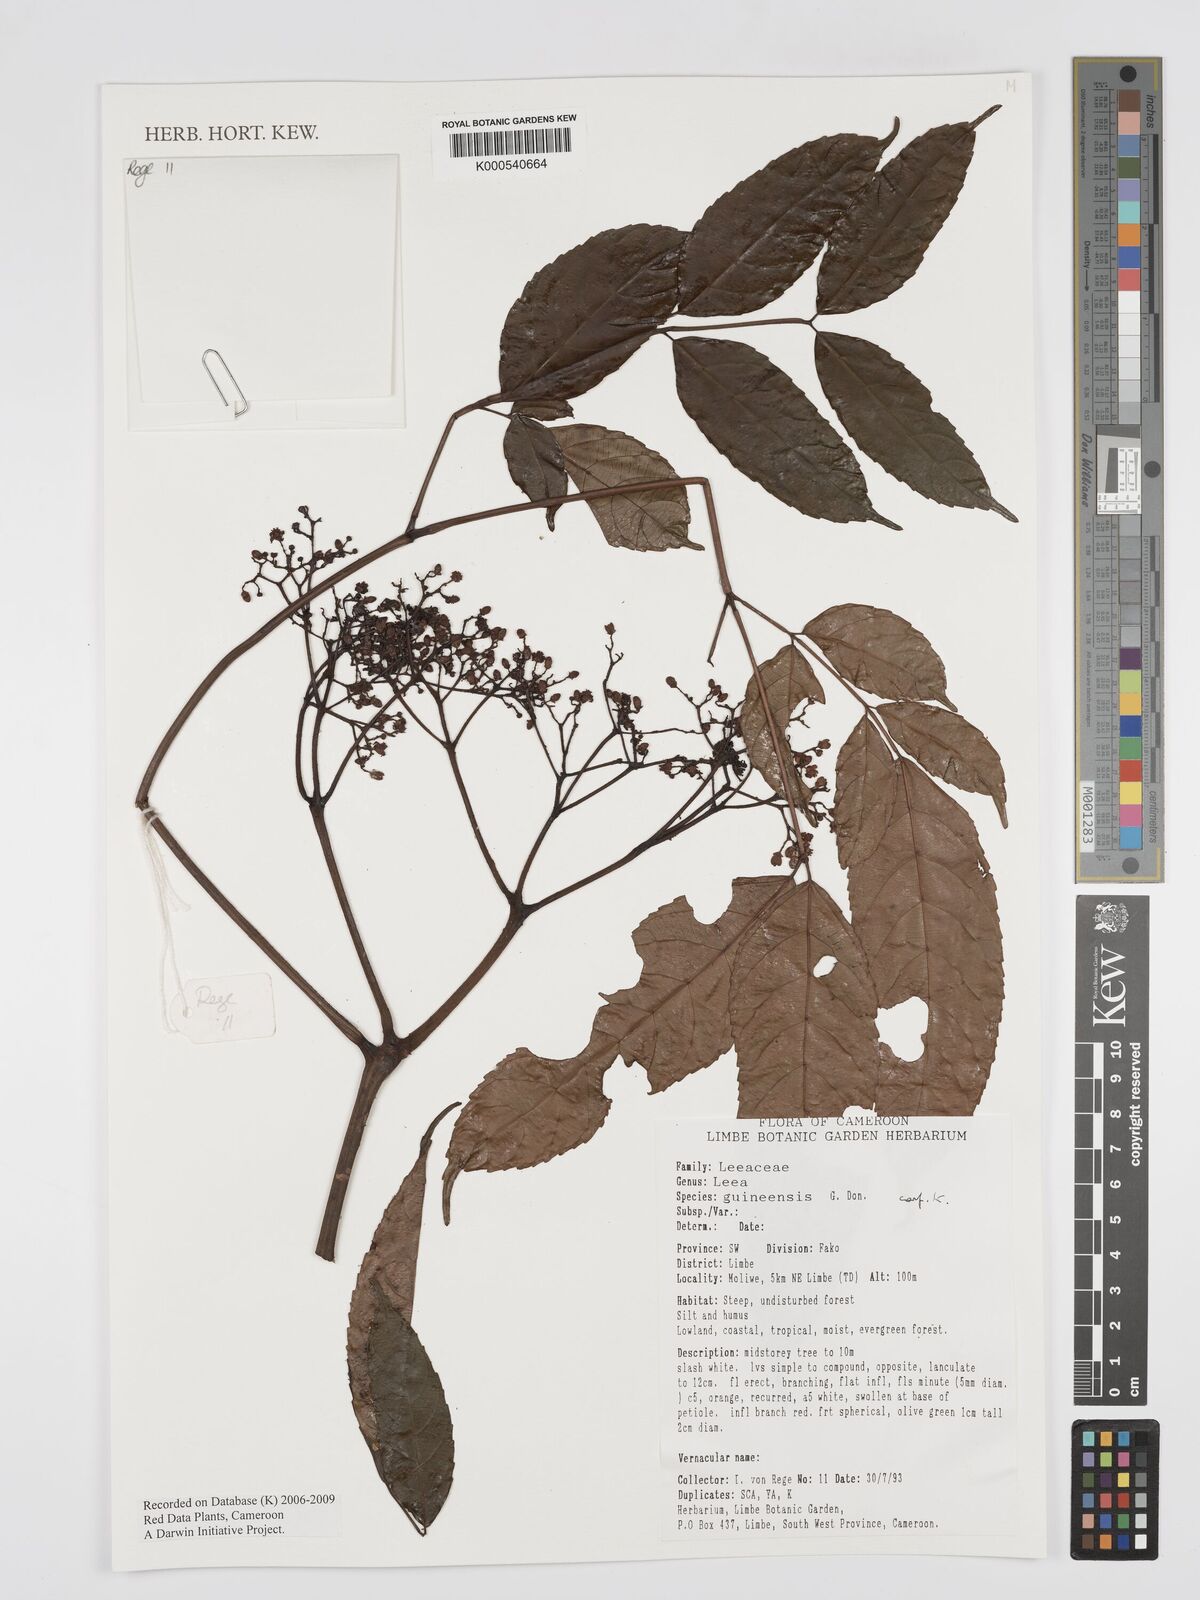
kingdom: Plantae
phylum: Tracheophyta
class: Magnoliopsida
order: Vitales
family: Vitaceae
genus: Leea
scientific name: Leea guineensis
